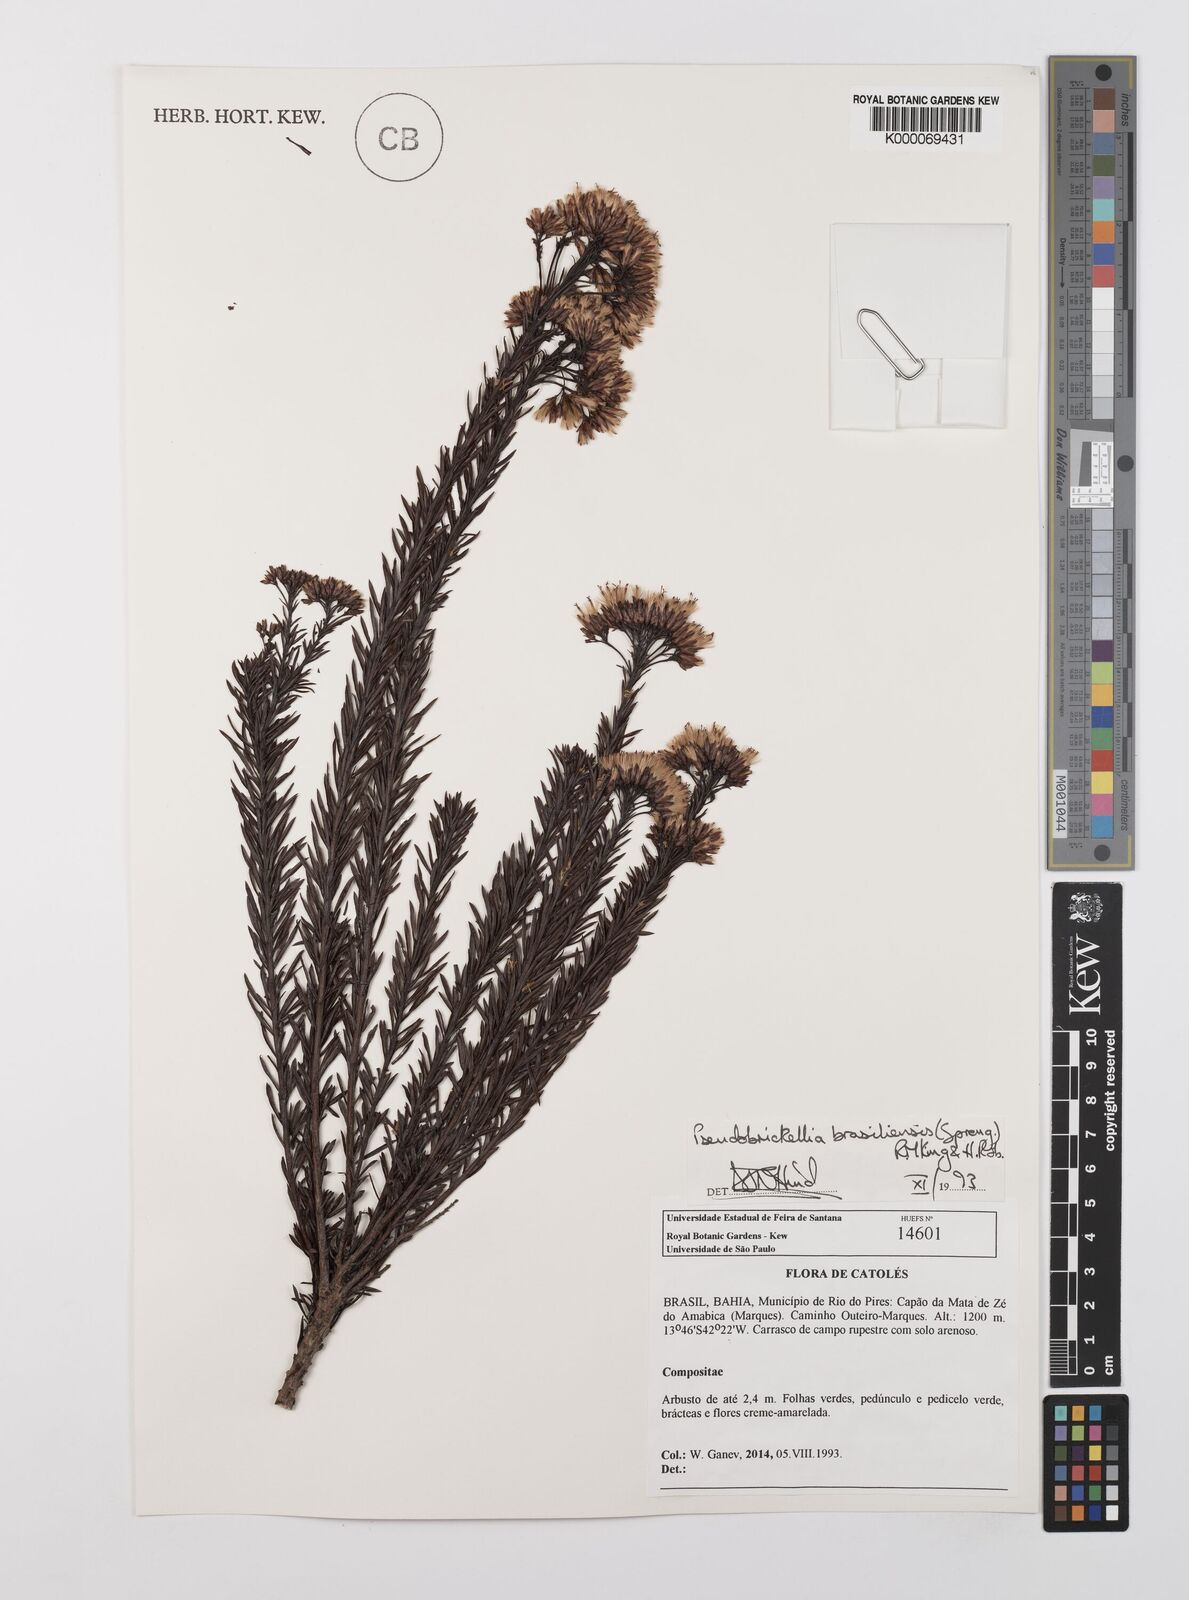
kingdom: Plantae
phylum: Tracheophyta
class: Magnoliopsida
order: Asterales
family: Asteraceae
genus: Pseudobrickellia
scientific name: Pseudobrickellia brasiliensis
